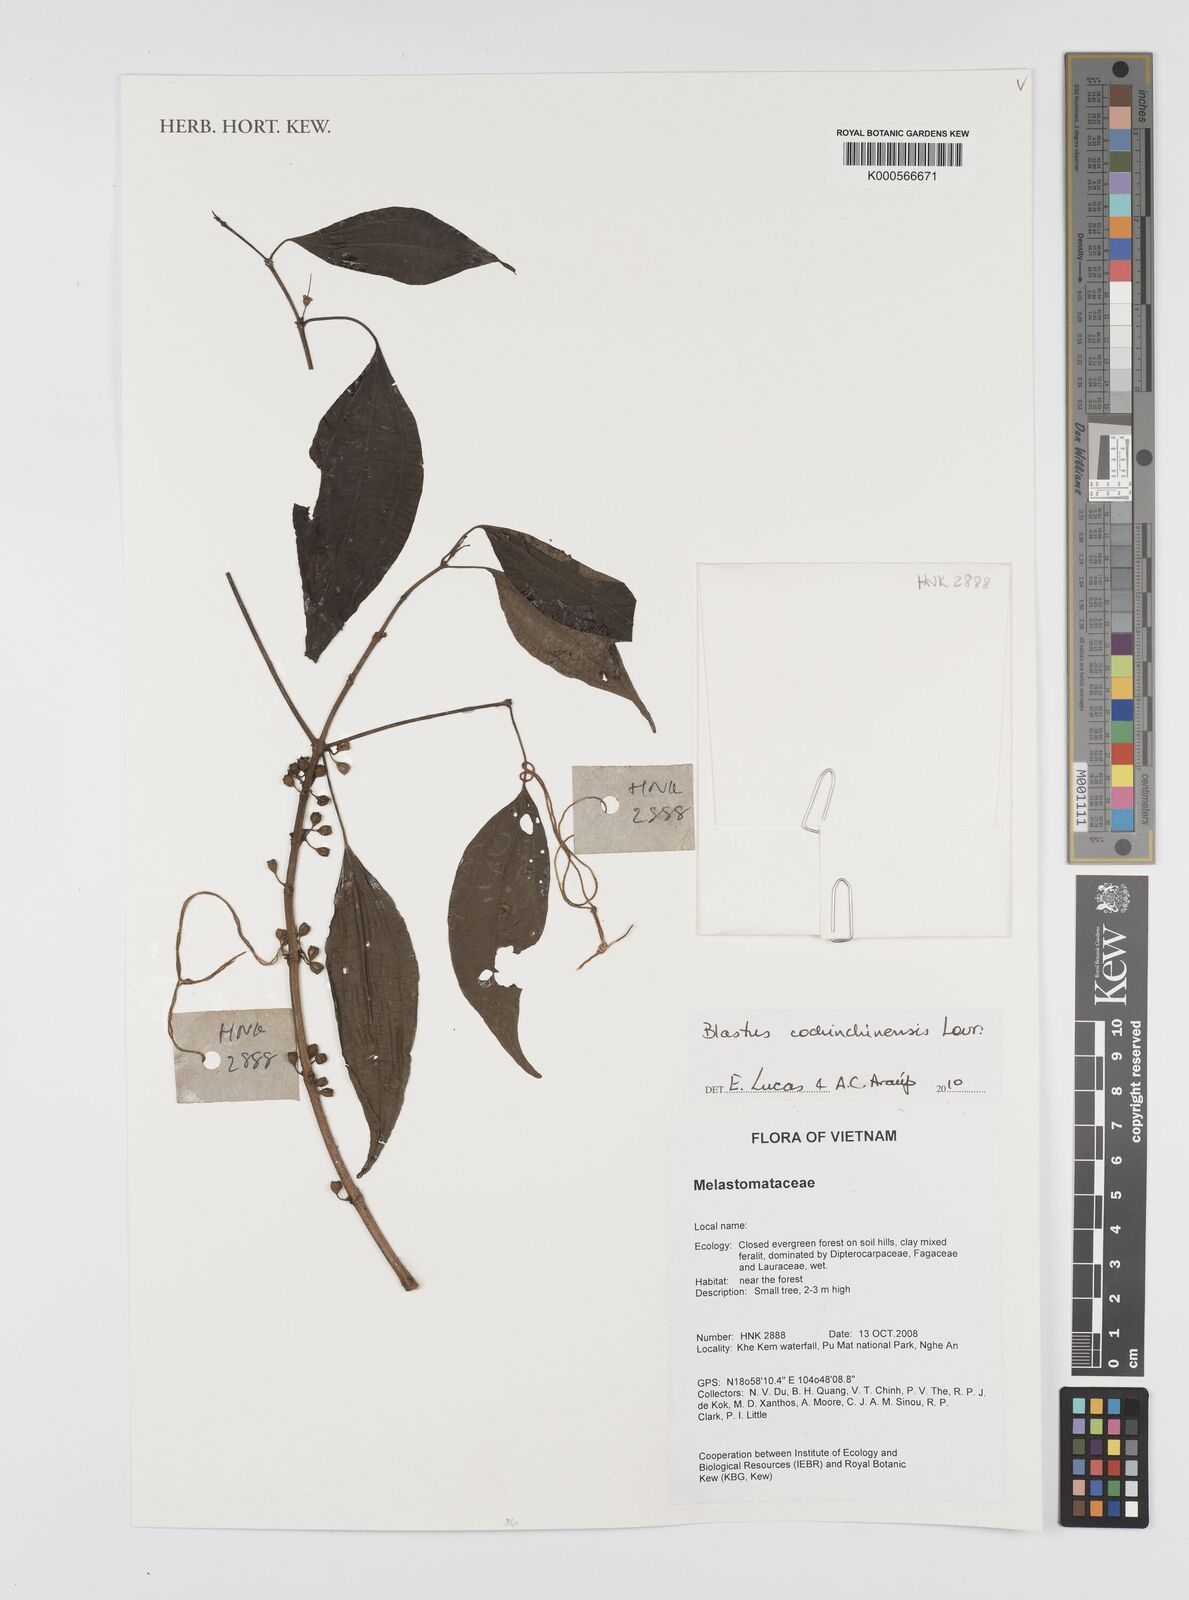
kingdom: Plantae
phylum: Tracheophyta
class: Magnoliopsida
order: Myrtales
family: Melastomataceae
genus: Blastus
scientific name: Blastus cochinchinensis
